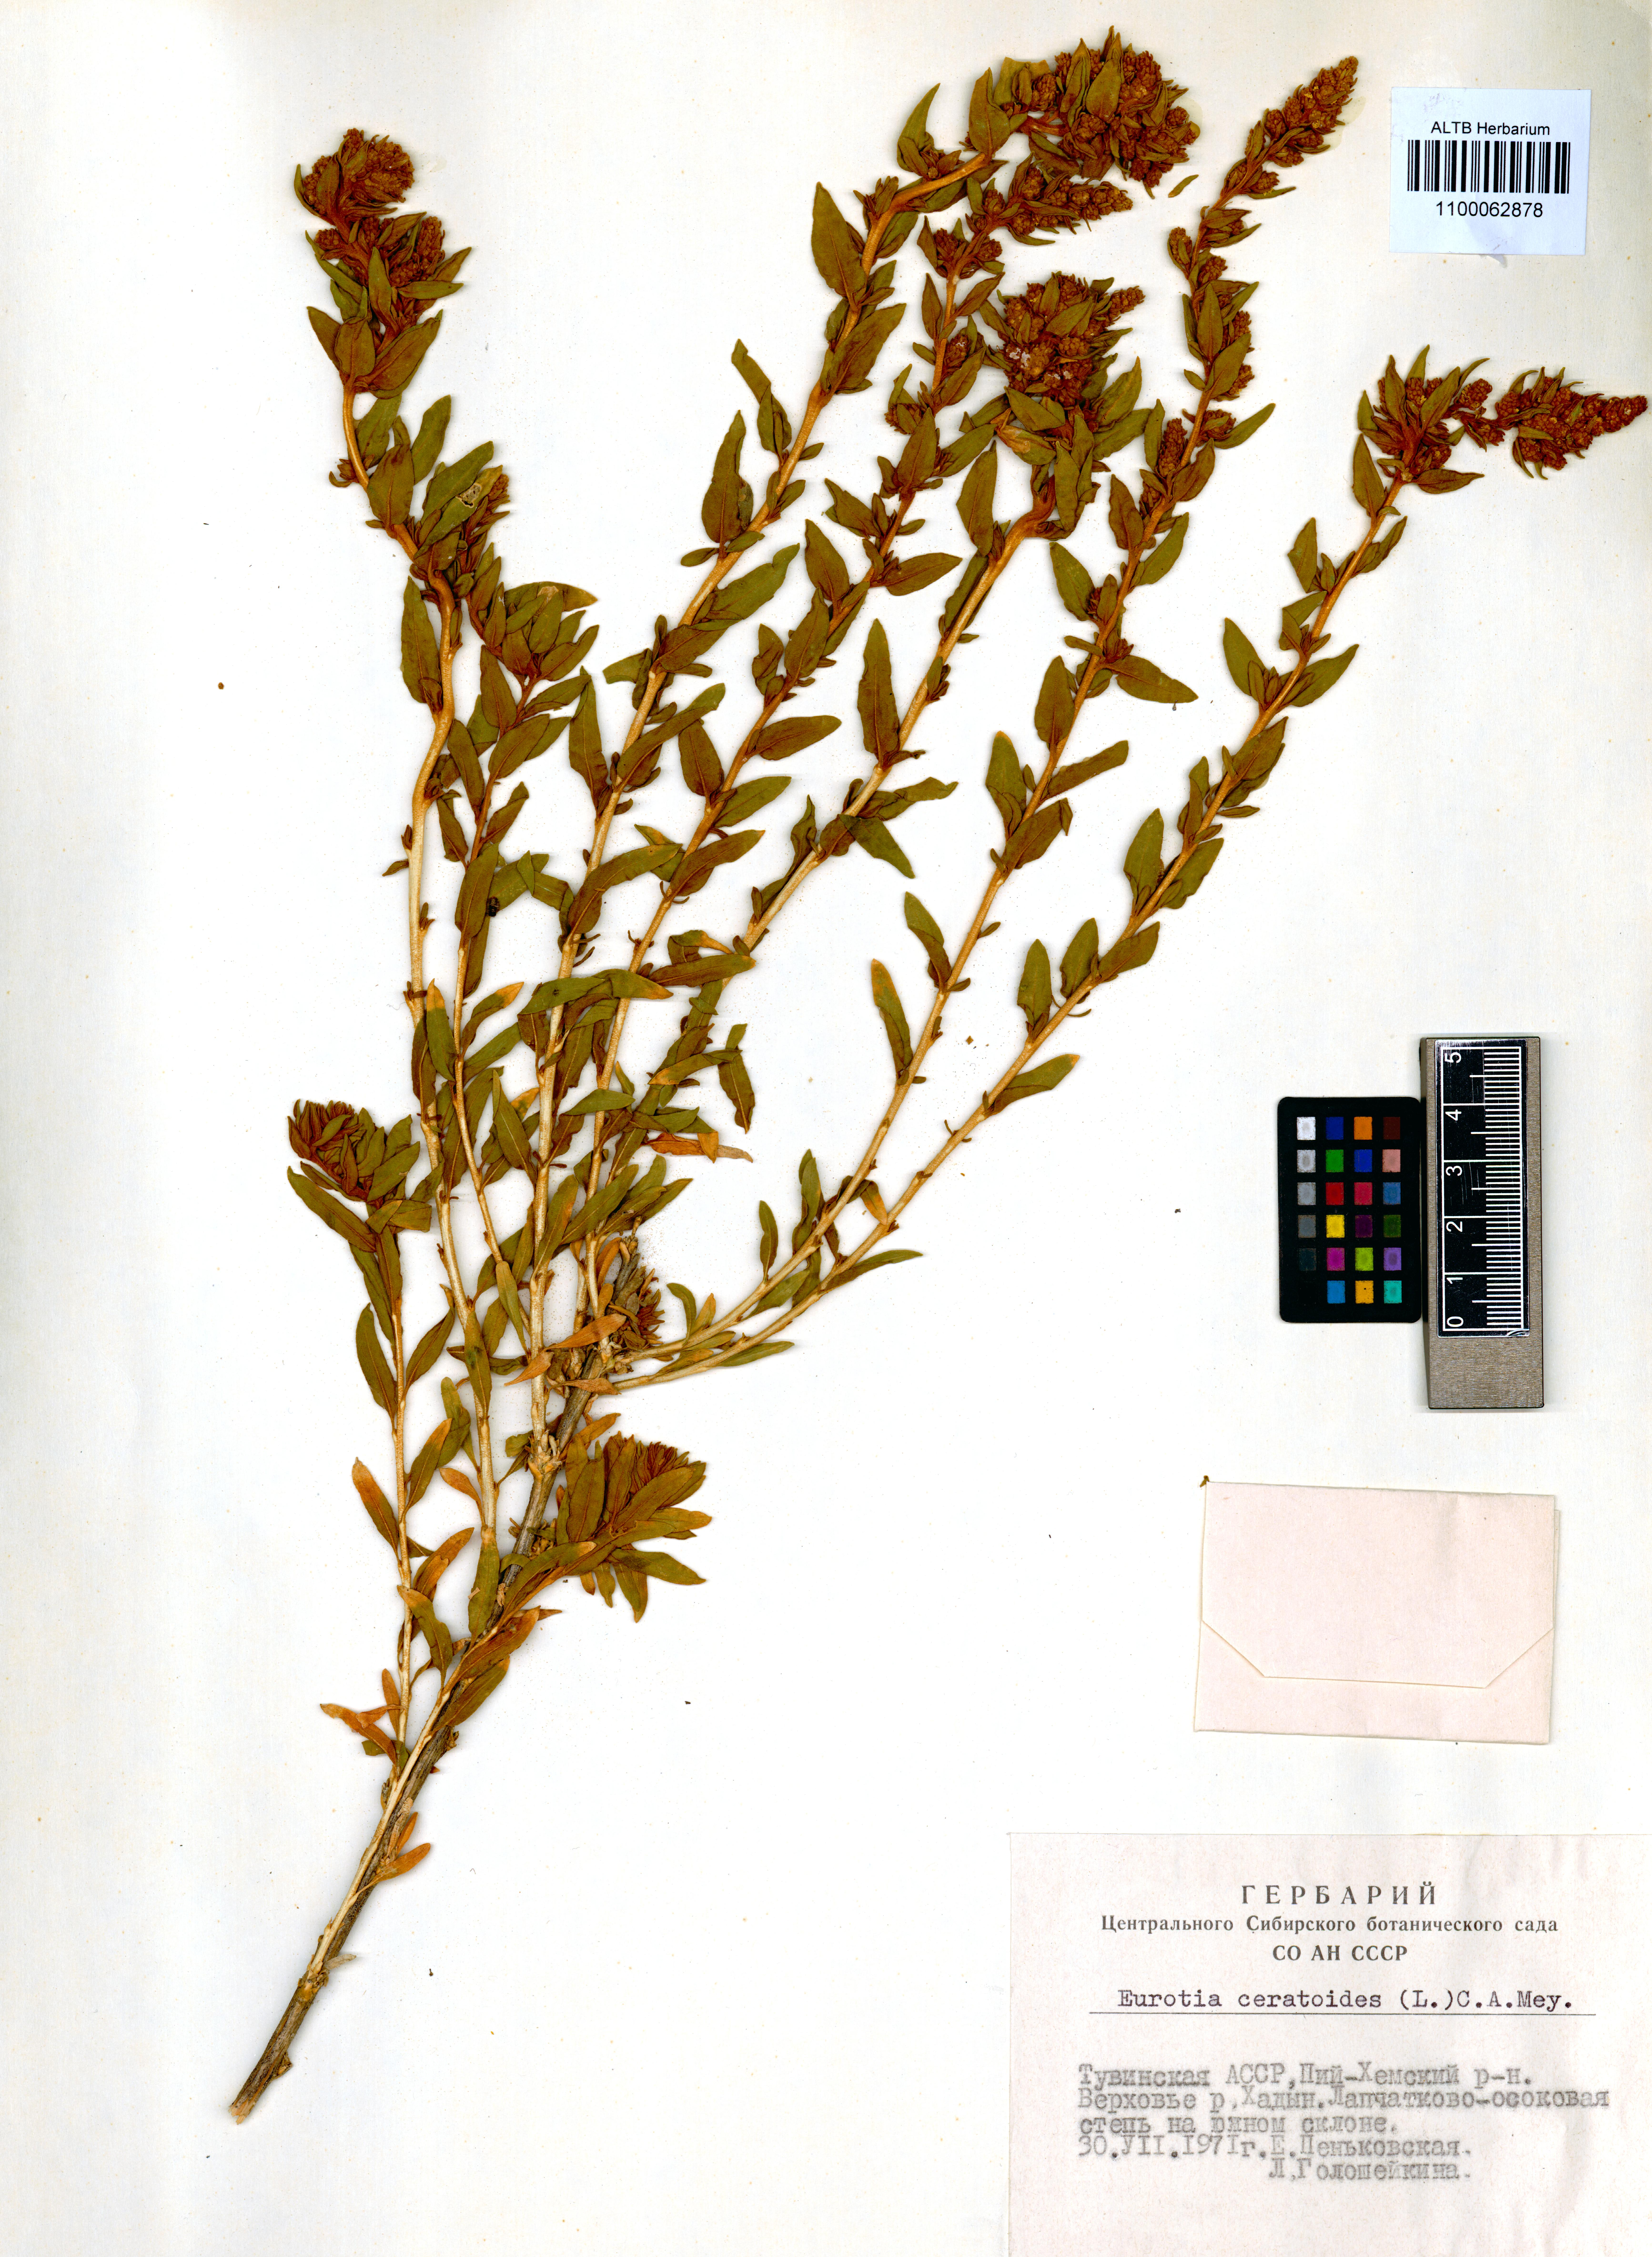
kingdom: Plantae
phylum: Tracheophyta
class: Magnoliopsida
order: Caryophyllales
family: Amaranthaceae
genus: Krascheninnikovia
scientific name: Krascheninnikovia ceratoides
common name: Pamirian winterfat
